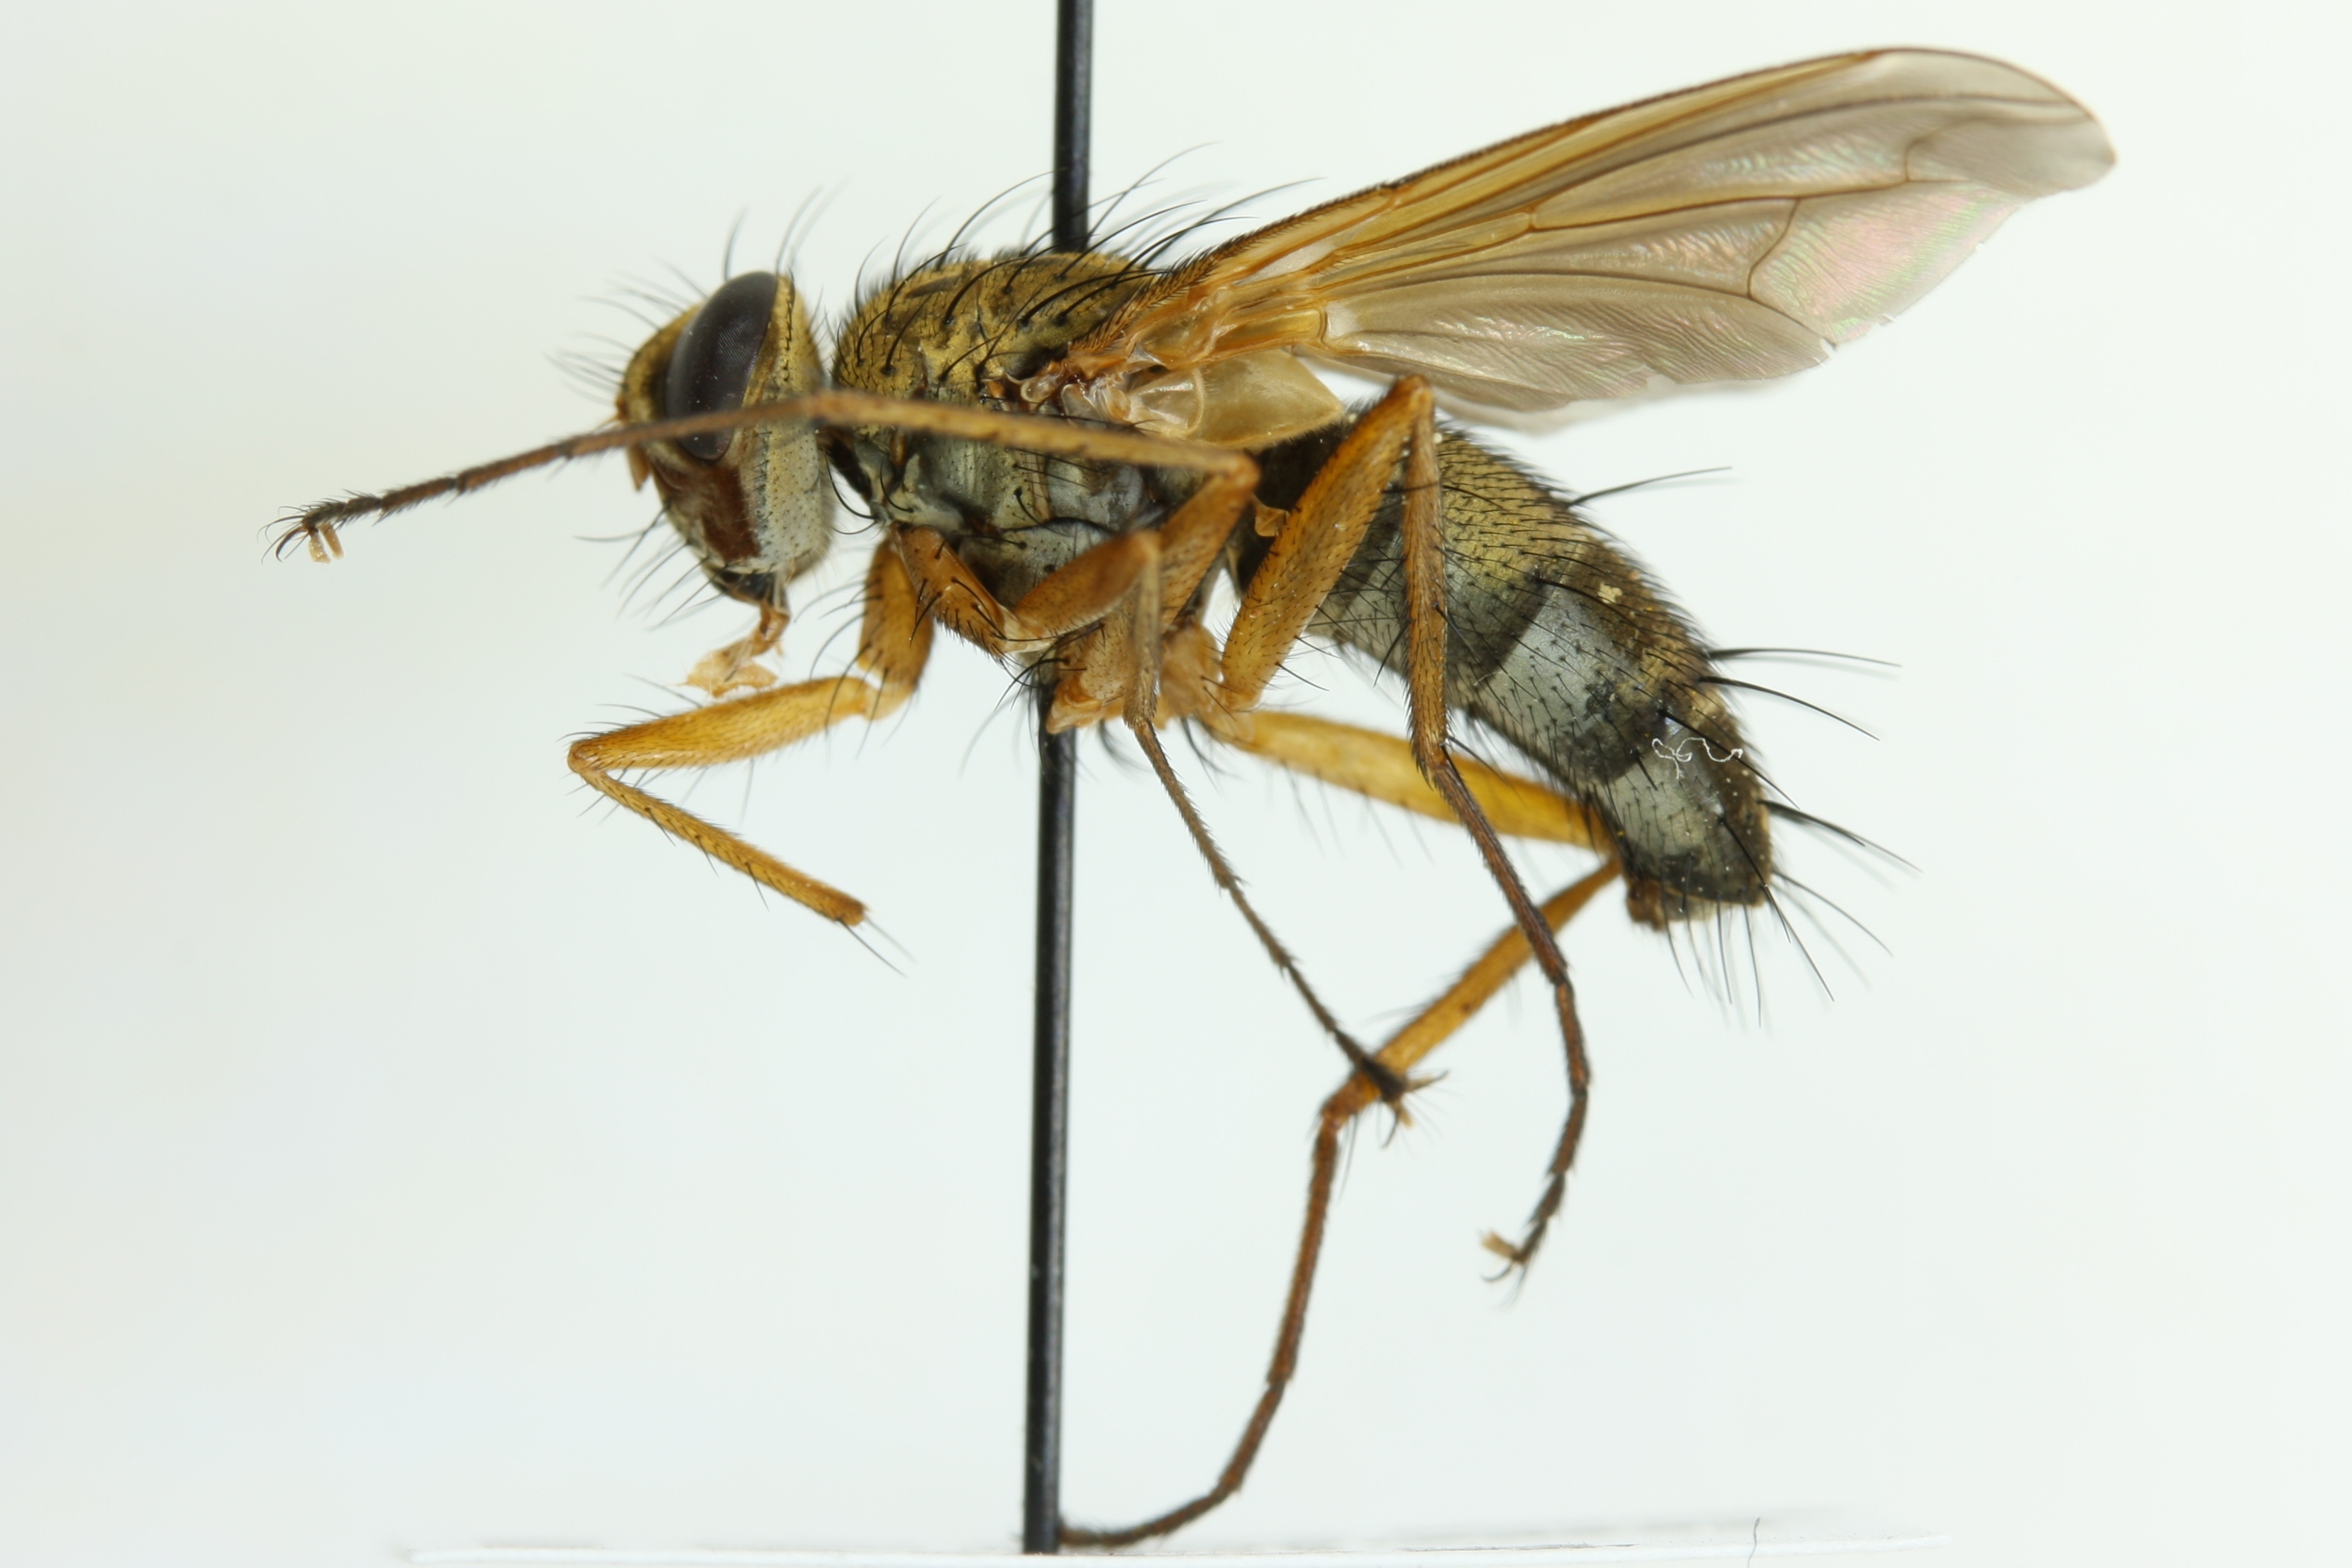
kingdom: Animalia
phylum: Arthropoda
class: Insecta
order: Diptera
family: Tachinidae
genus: Dexiosoma
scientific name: Dexiosoma caninum
